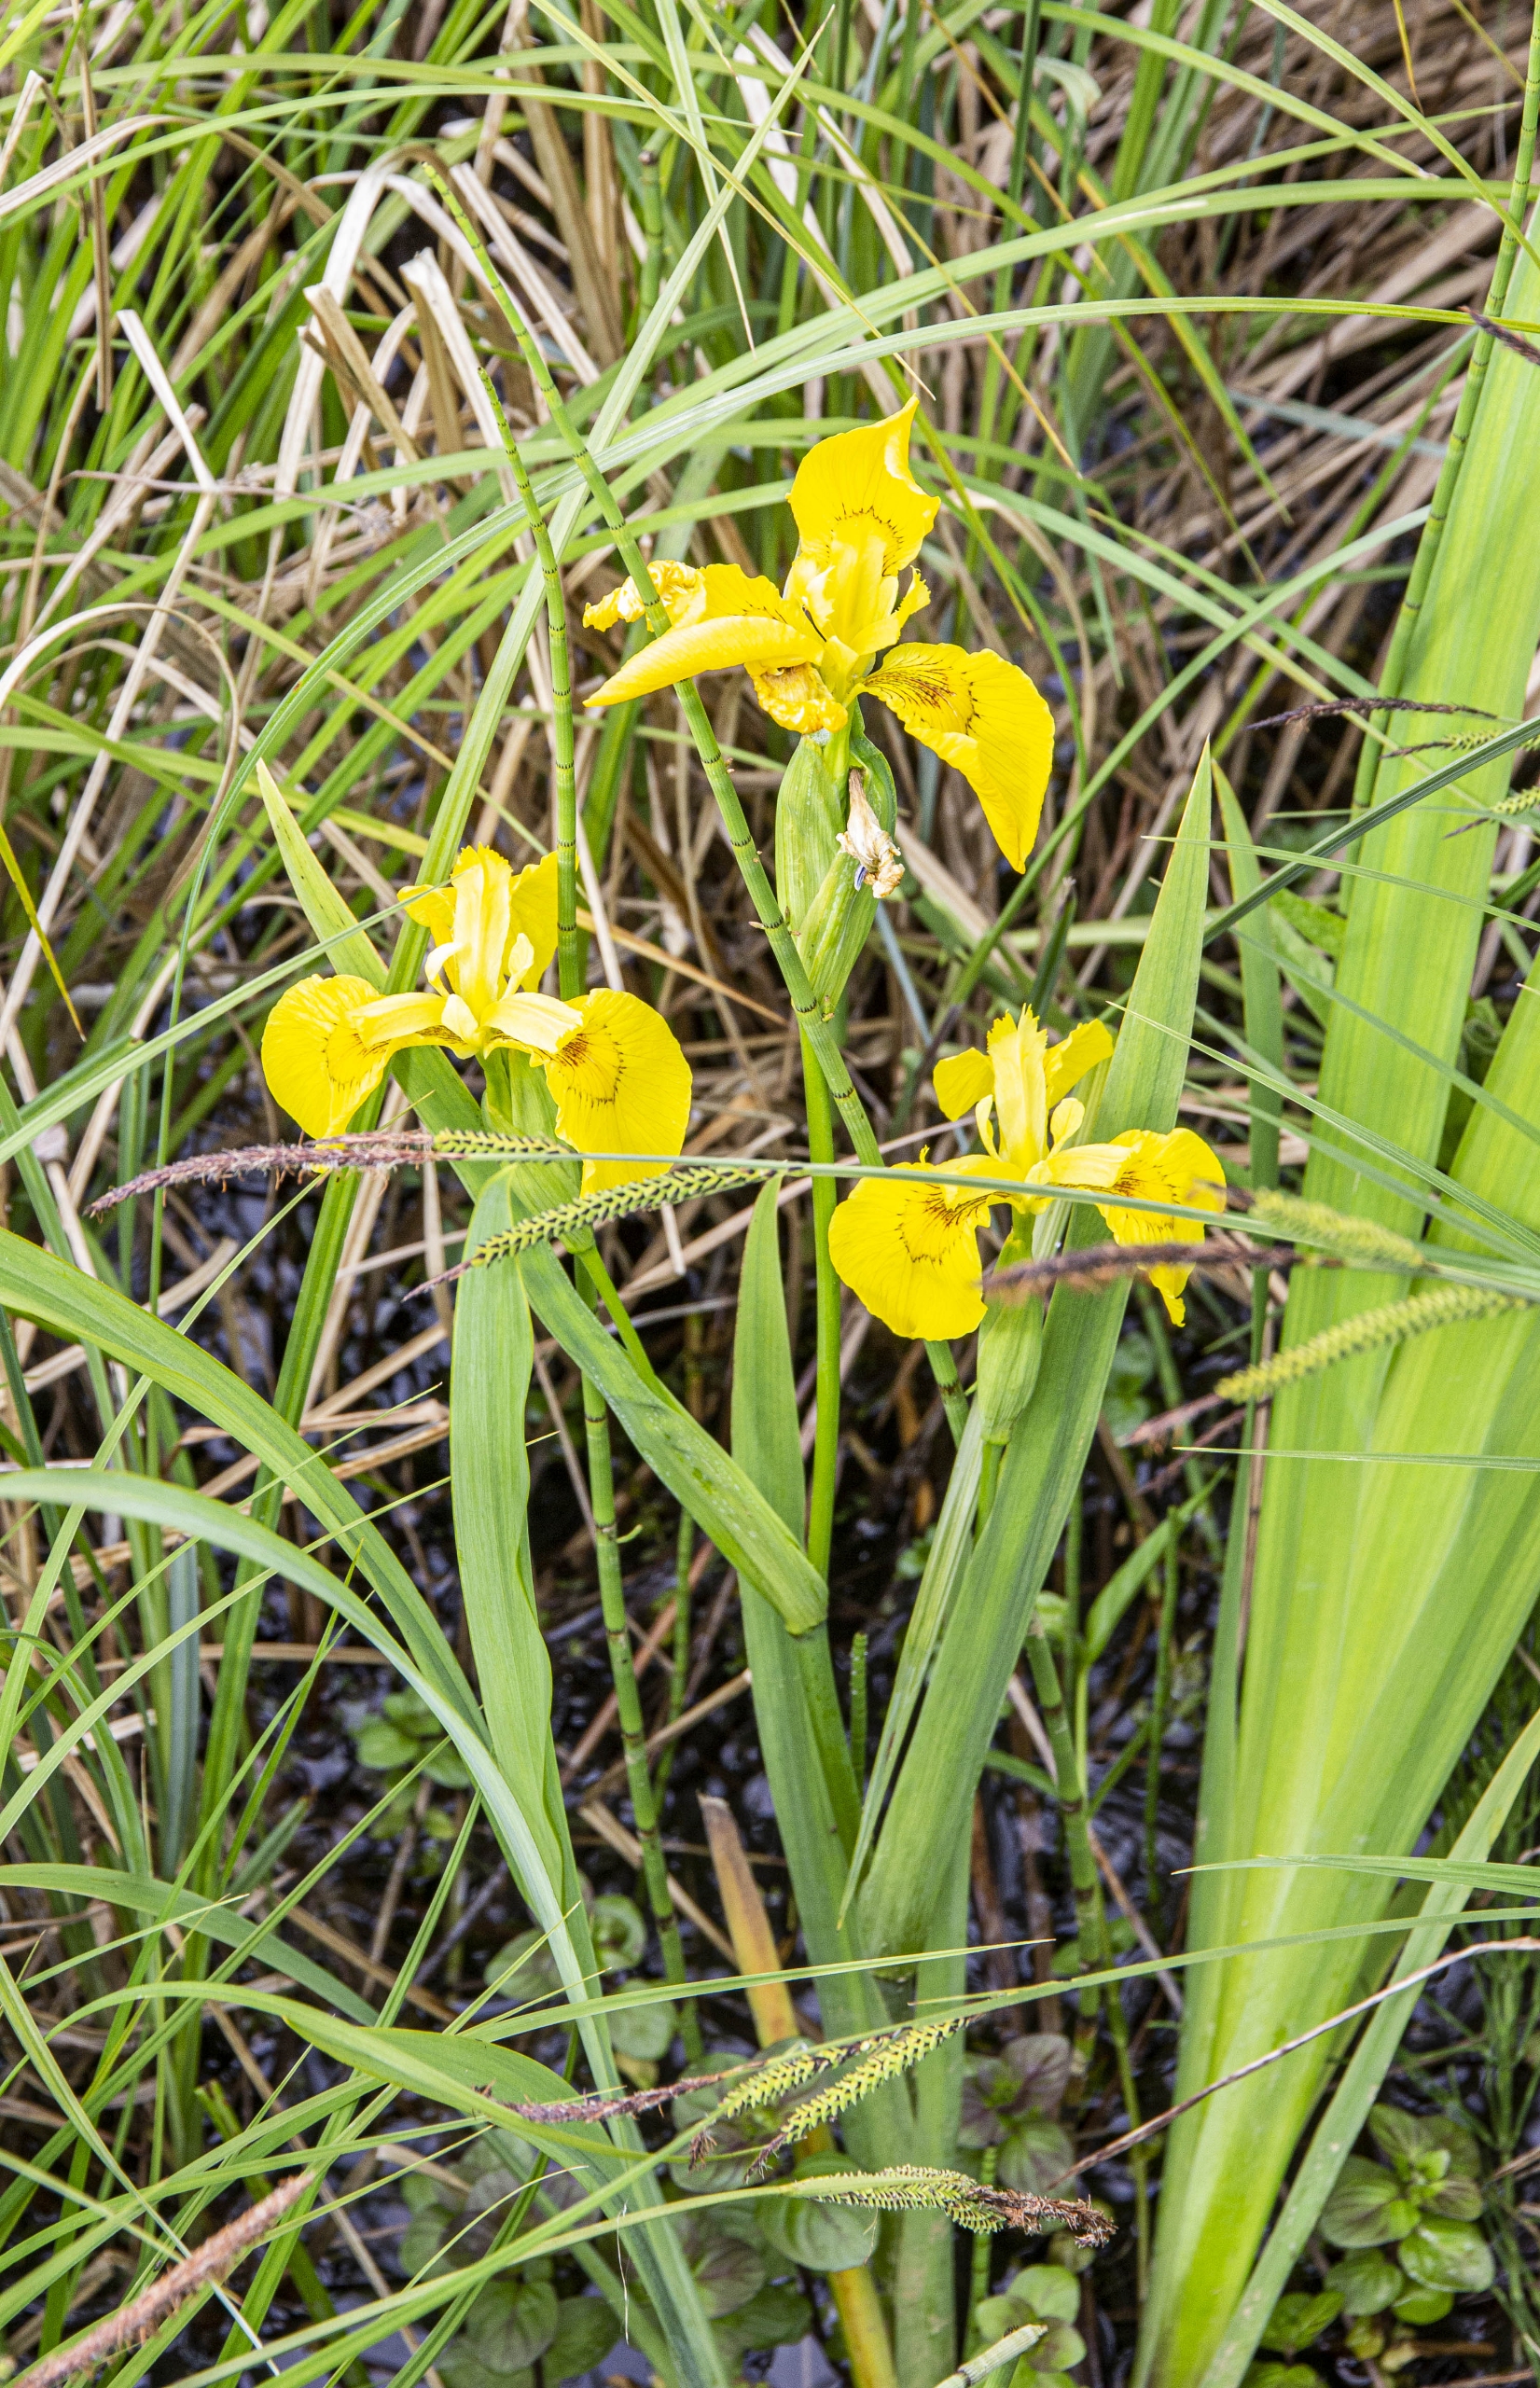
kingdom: Plantae
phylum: Tracheophyta
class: Liliopsida
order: Asparagales
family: Iridaceae
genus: Iris
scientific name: Iris pseudacorus
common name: Gul iris
